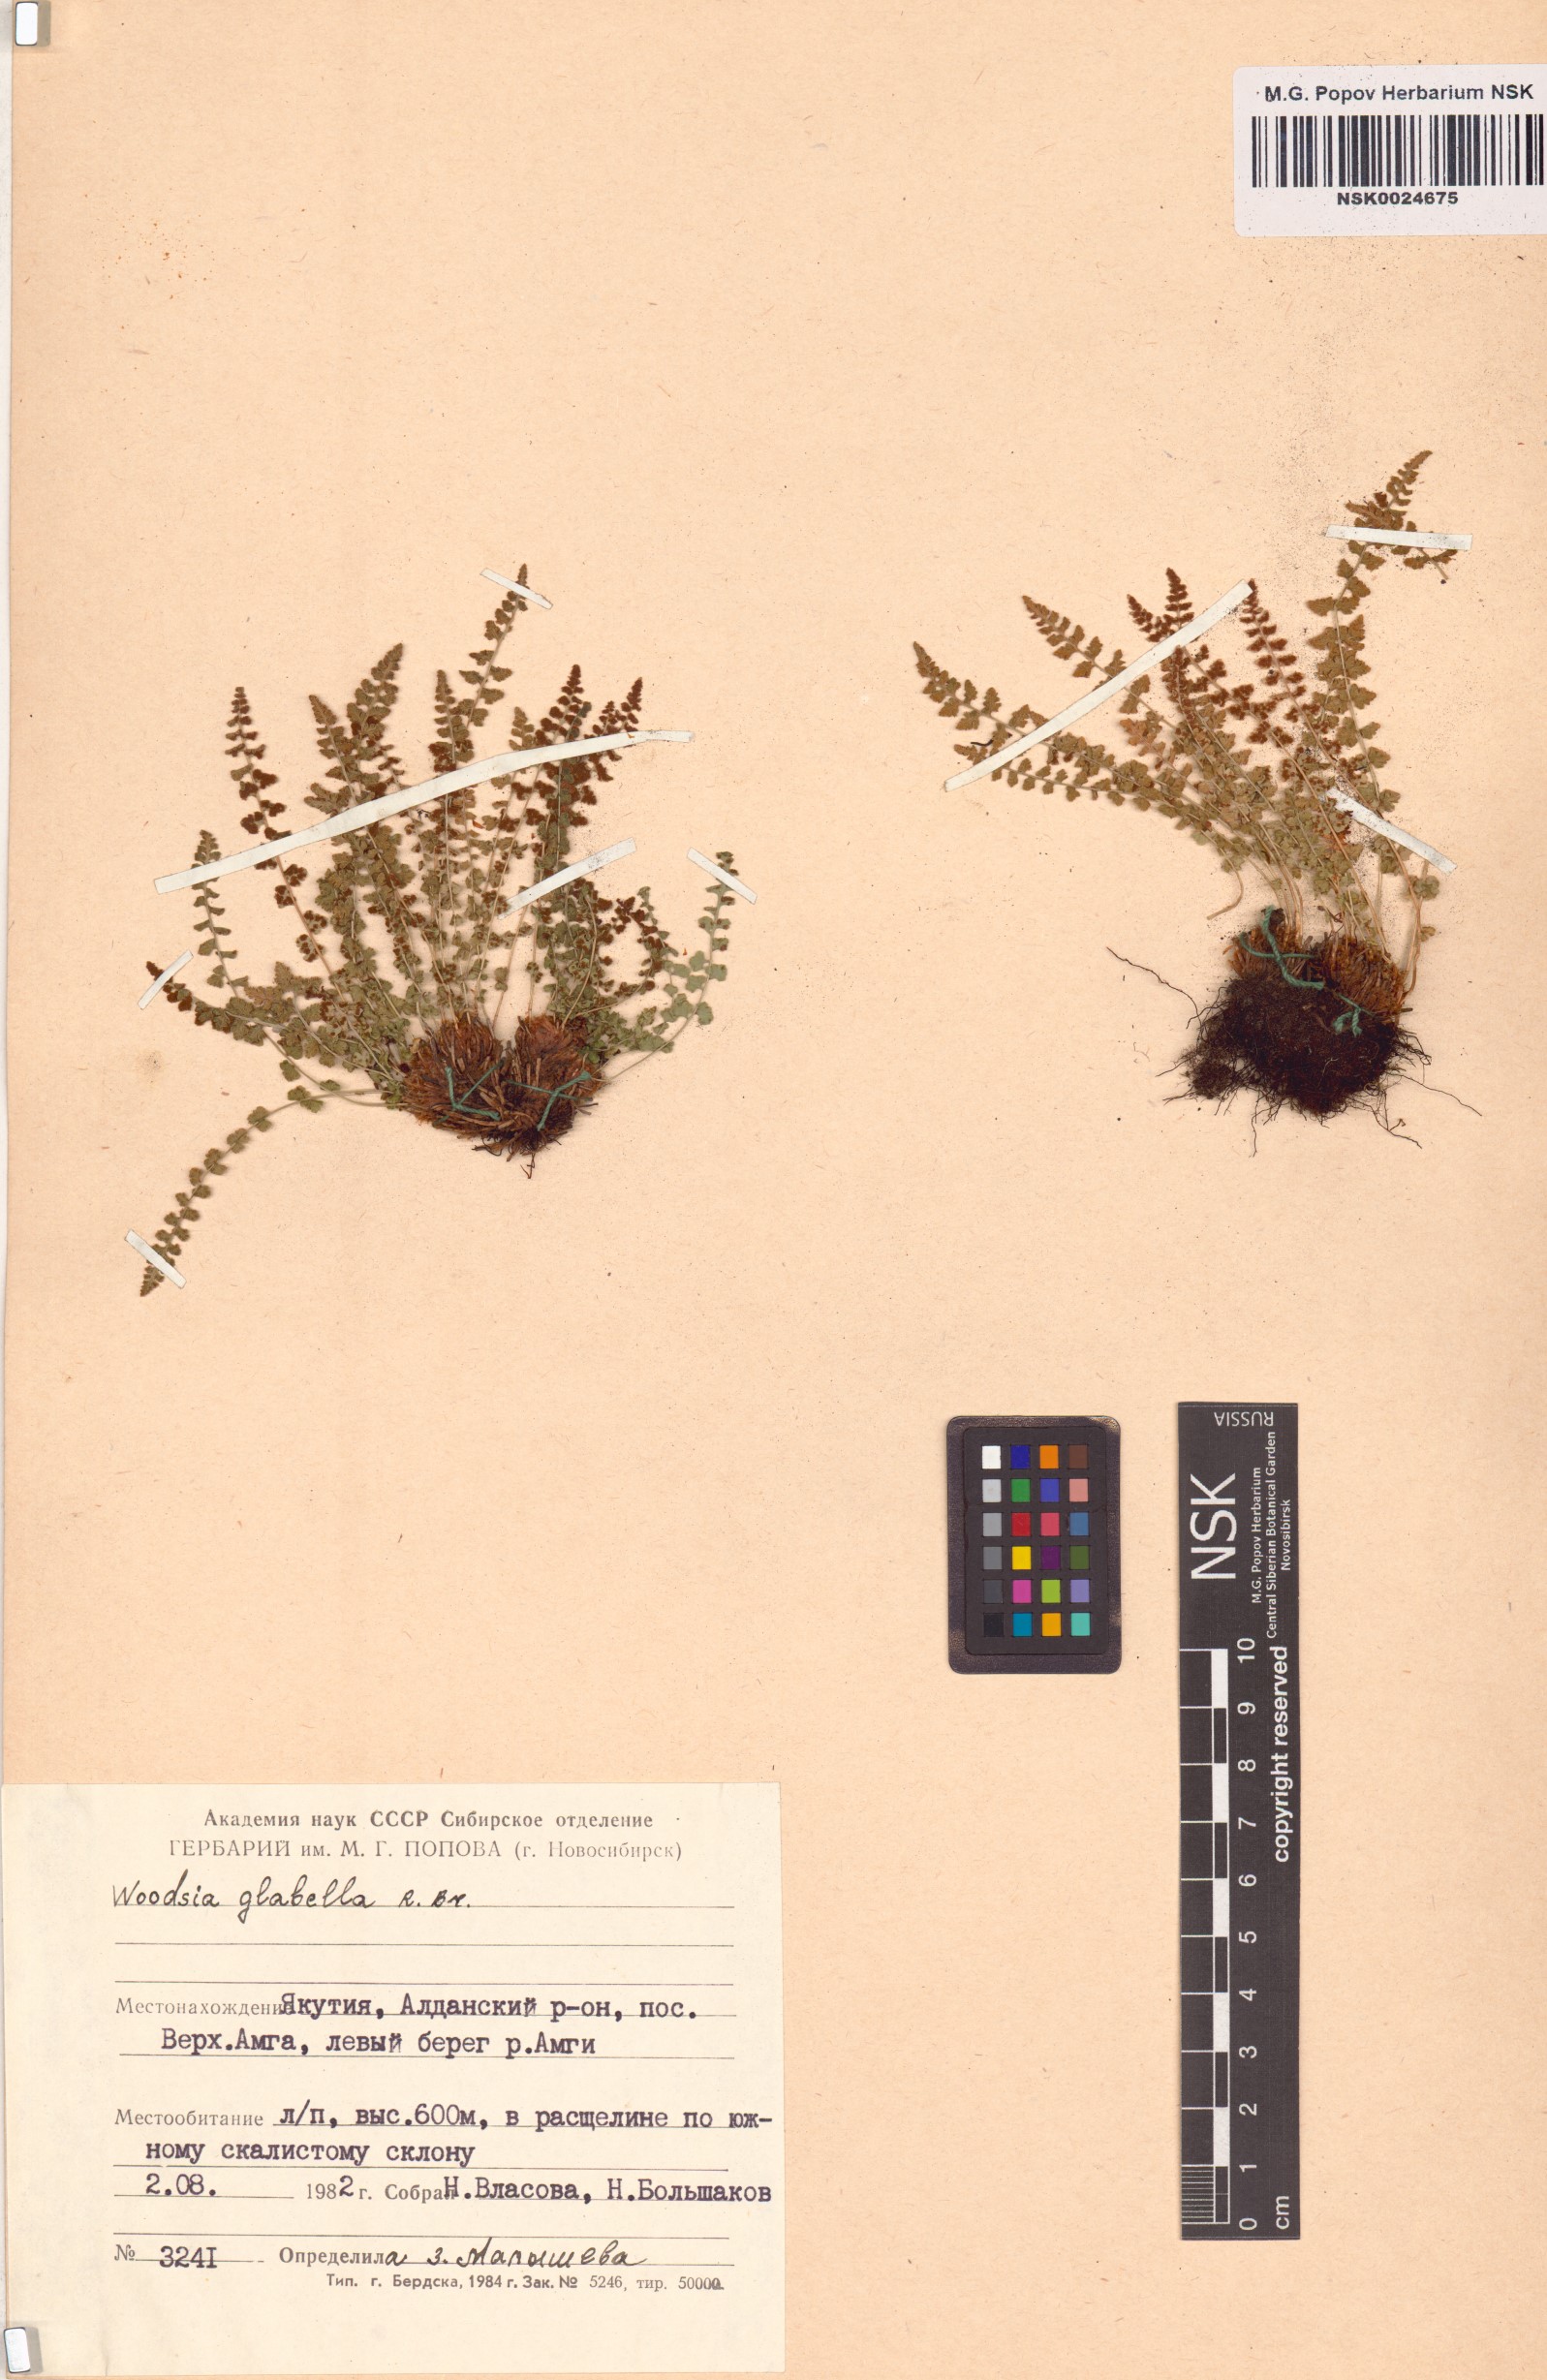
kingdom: Plantae
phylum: Tracheophyta
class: Polypodiopsida
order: Polypodiales
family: Woodsiaceae
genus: Woodsia
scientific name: Woodsia glabella
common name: Smooth woodsia
